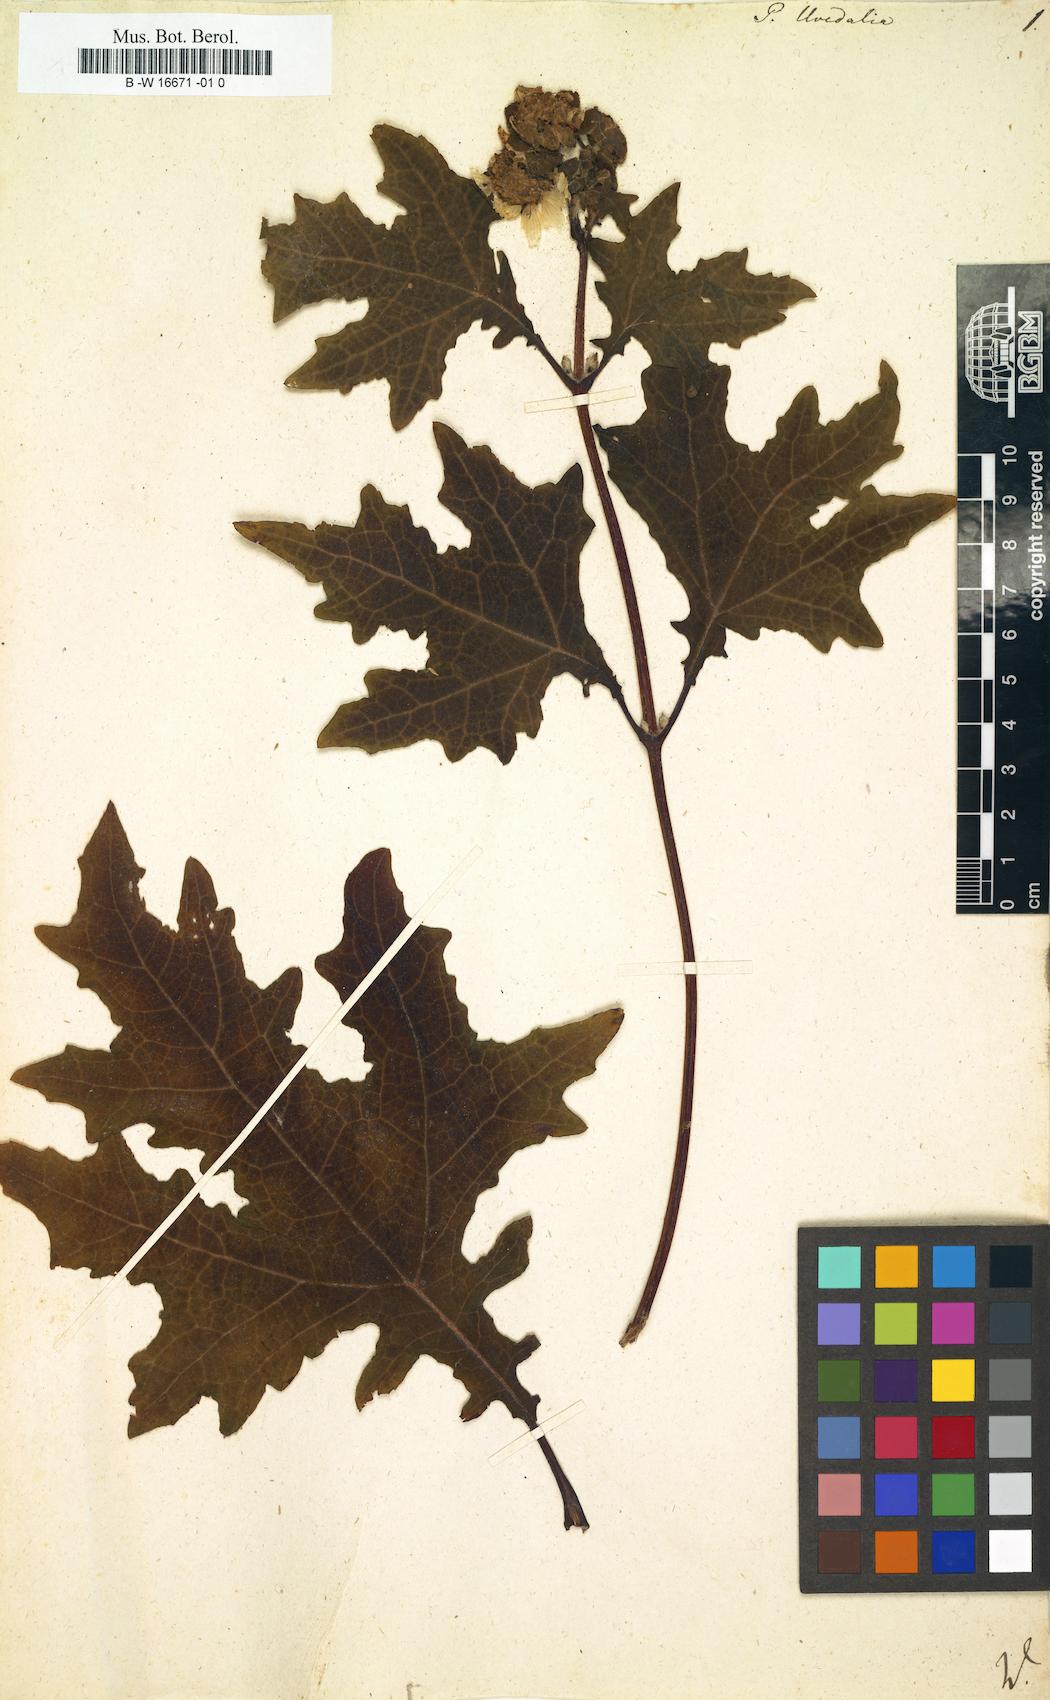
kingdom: Plantae
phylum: Tracheophyta
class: Magnoliopsida
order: Asterales
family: Asteraceae
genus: Smallanthus
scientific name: Smallanthus uvedalia
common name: Bear's-foot
